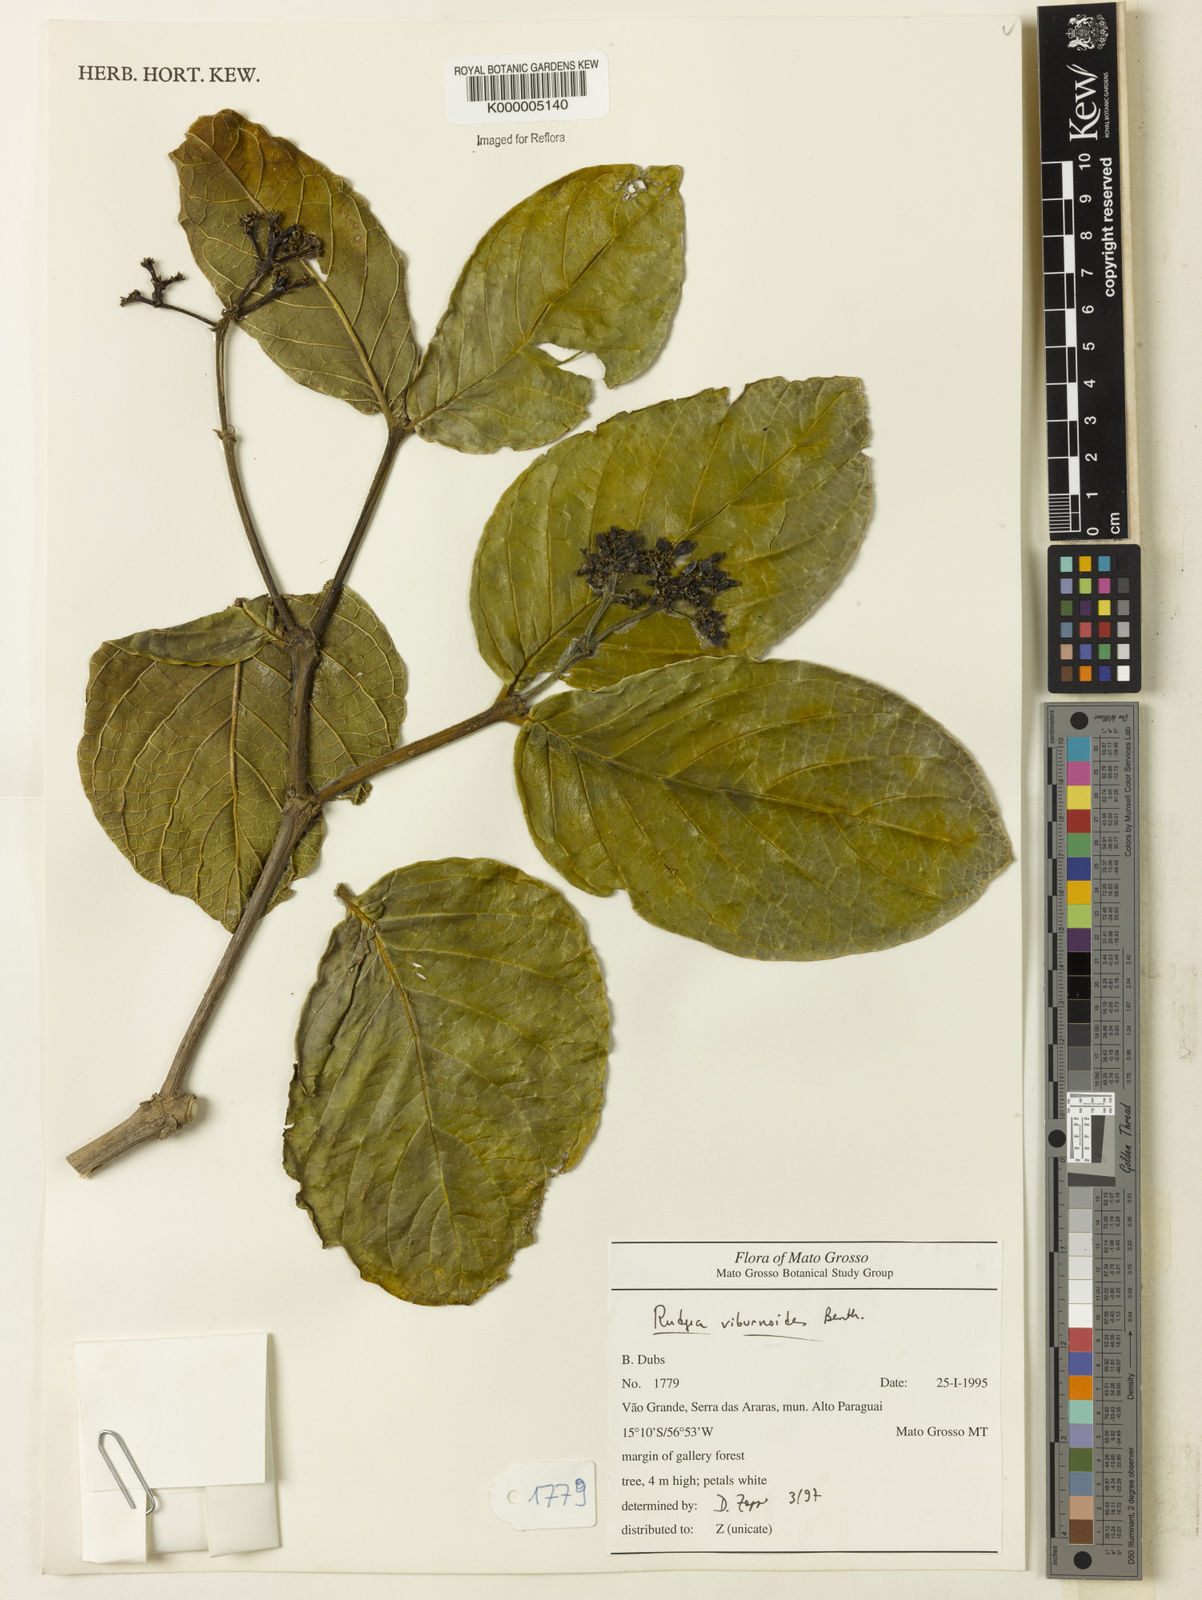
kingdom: Plantae
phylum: Tracheophyta
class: Magnoliopsida
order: Gentianales
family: Rubiaceae
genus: Rudgea
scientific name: Rudgea viburnoides
